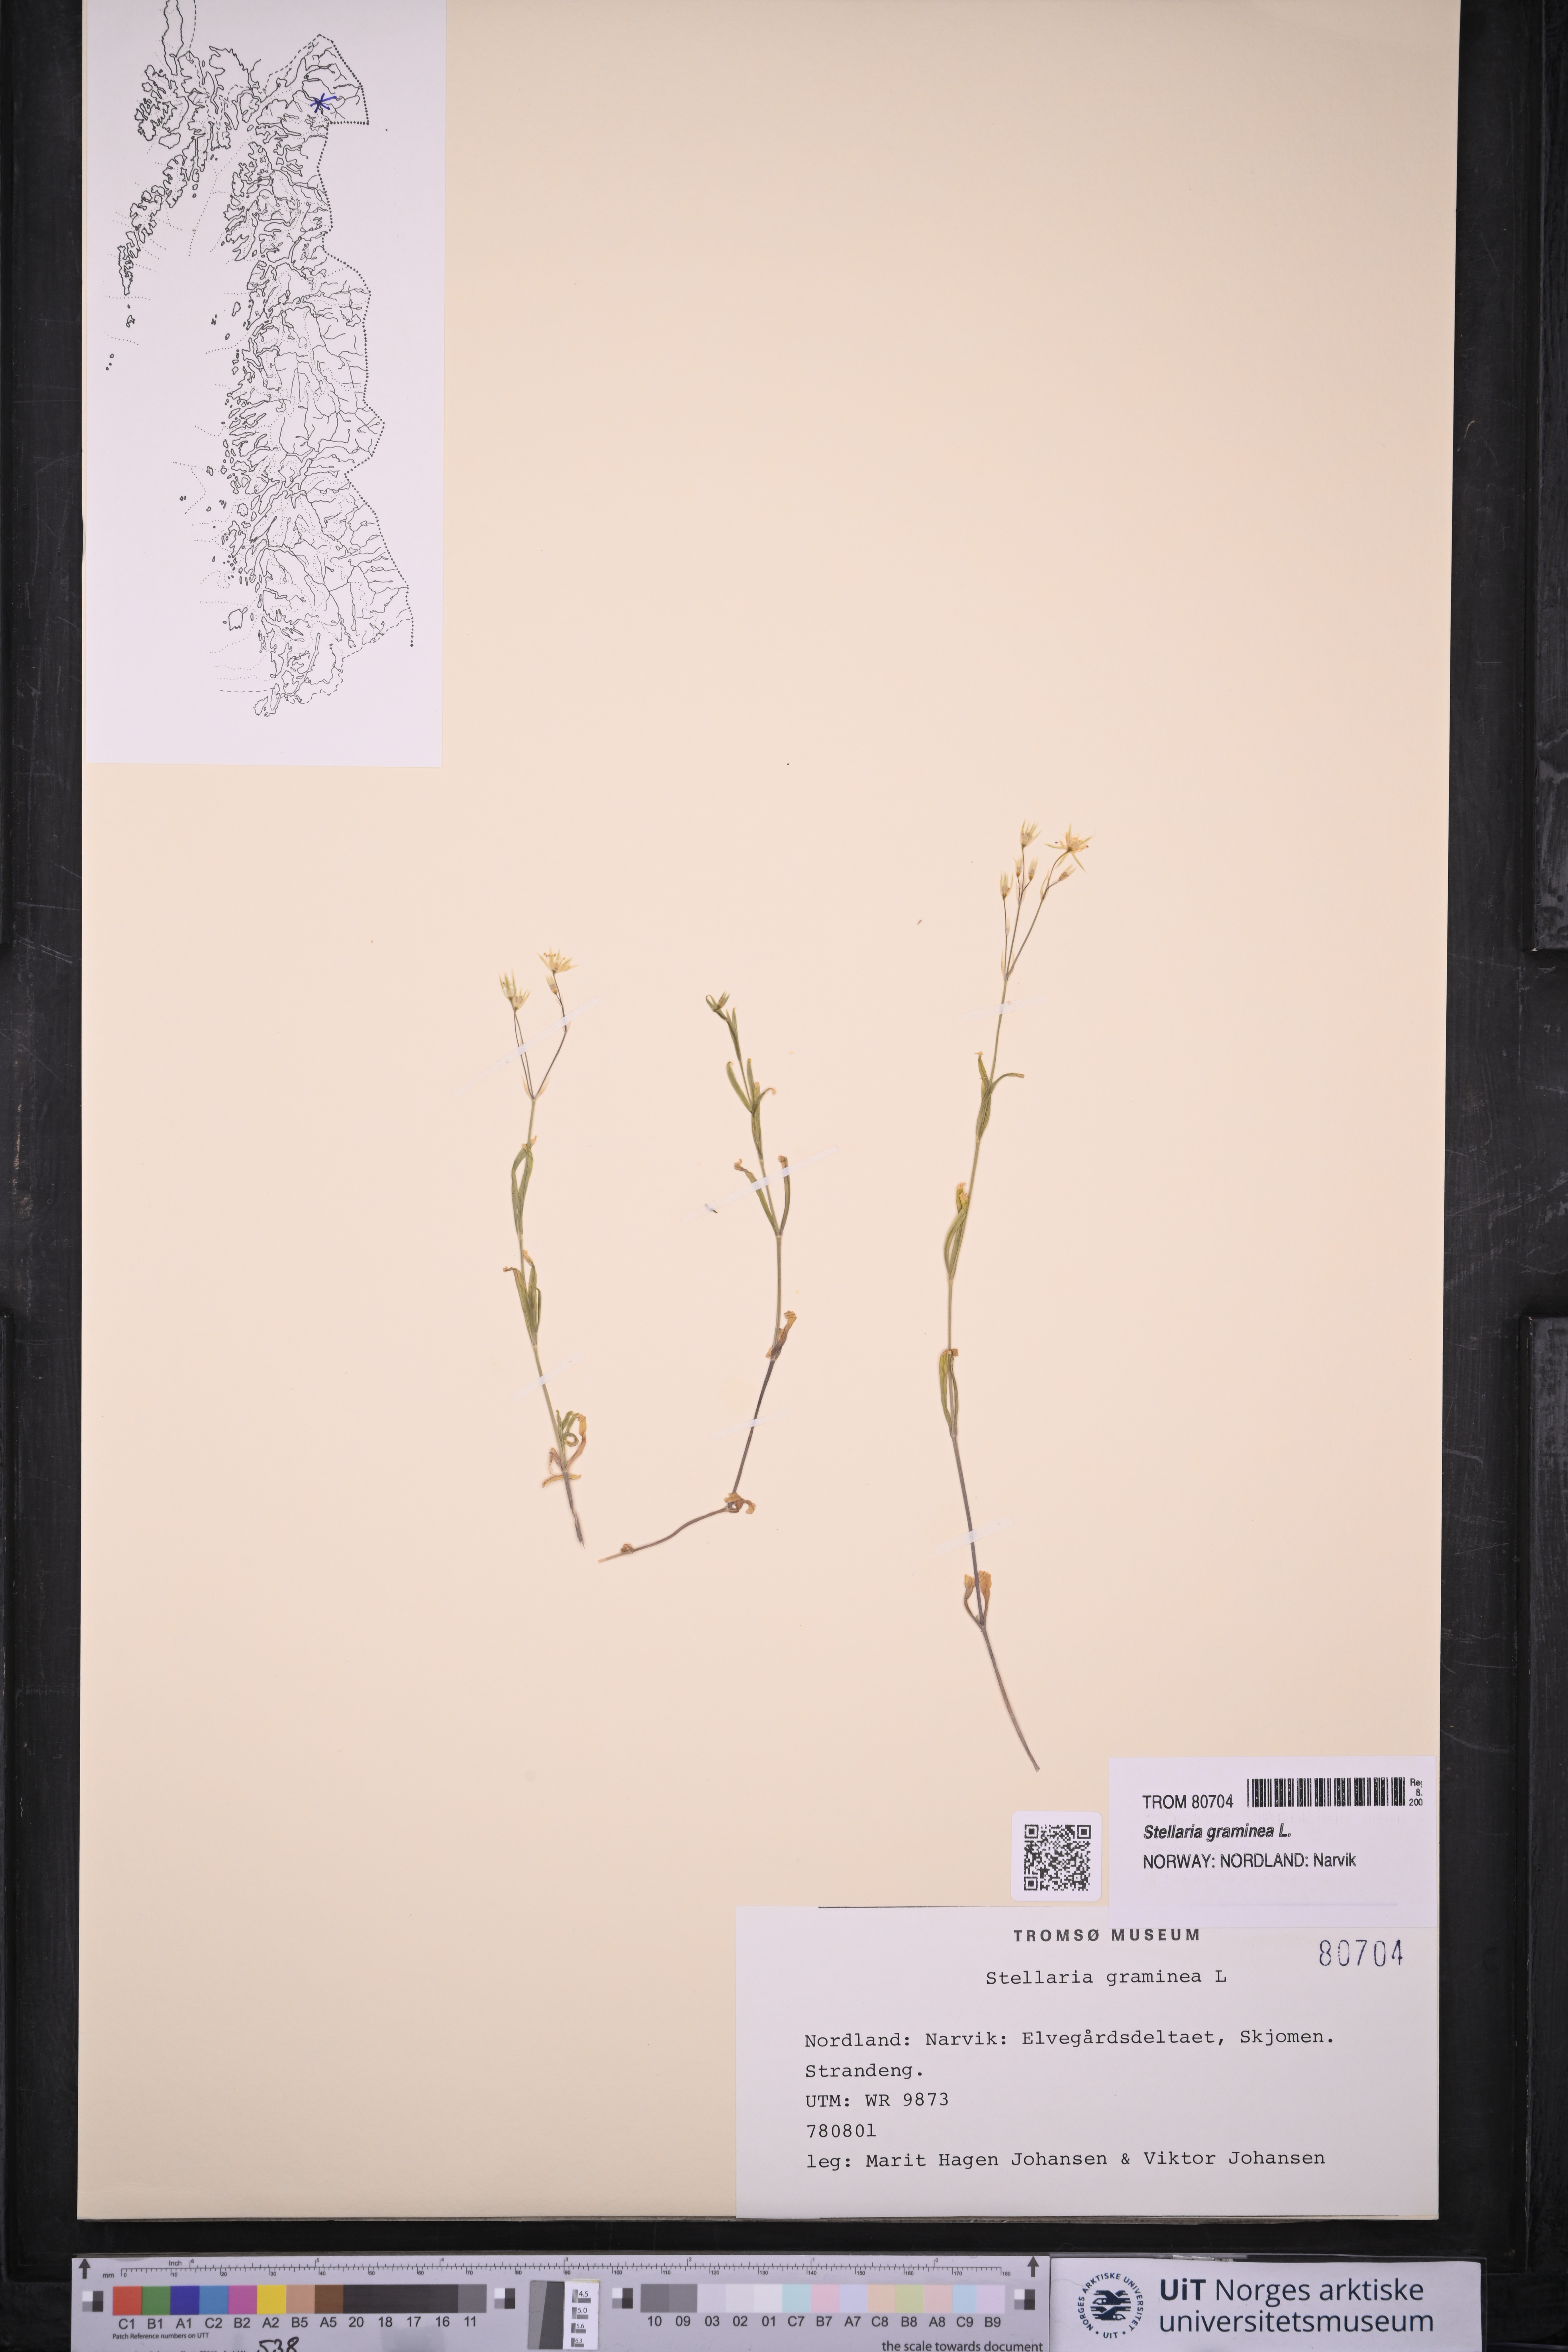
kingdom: Plantae
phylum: Tracheophyta
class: Magnoliopsida
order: Caryophyllales
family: Caryophyllaceae
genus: Stellaria
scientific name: Stellaria graminea
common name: Grass-like starwort
